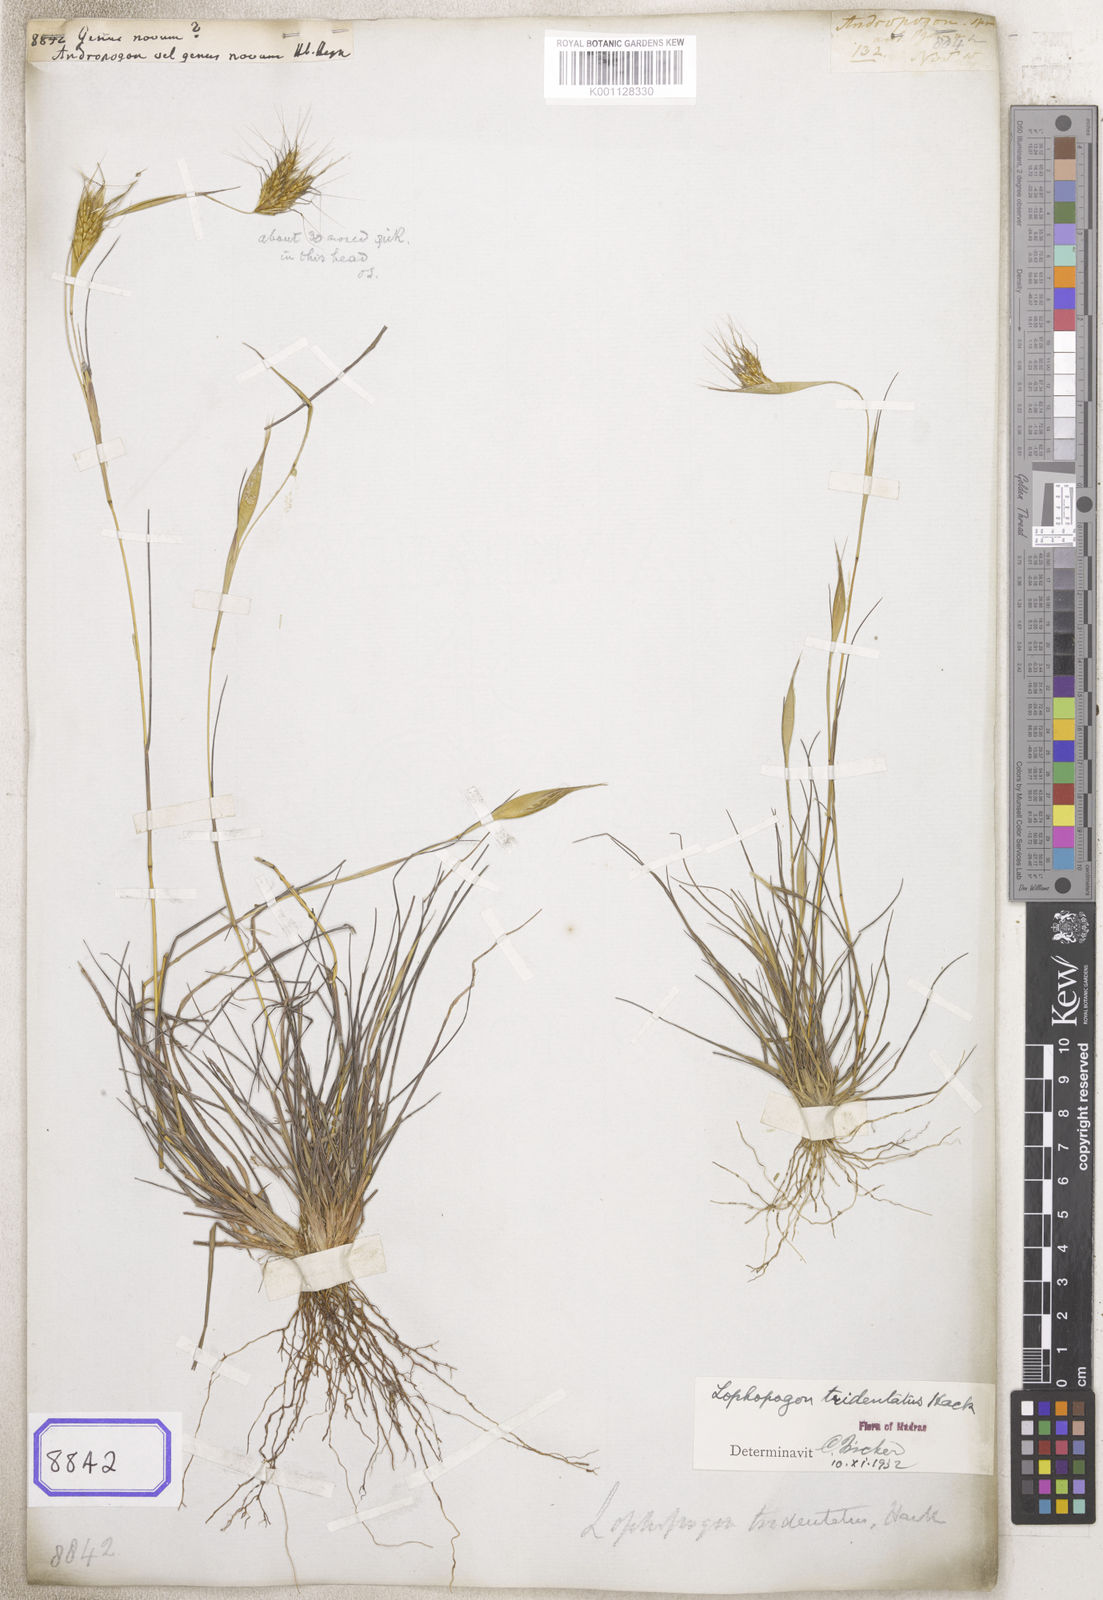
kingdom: Plantae
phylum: Tracheophyta
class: Liliopsida
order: Poales
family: Poaceae
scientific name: Poaceae
